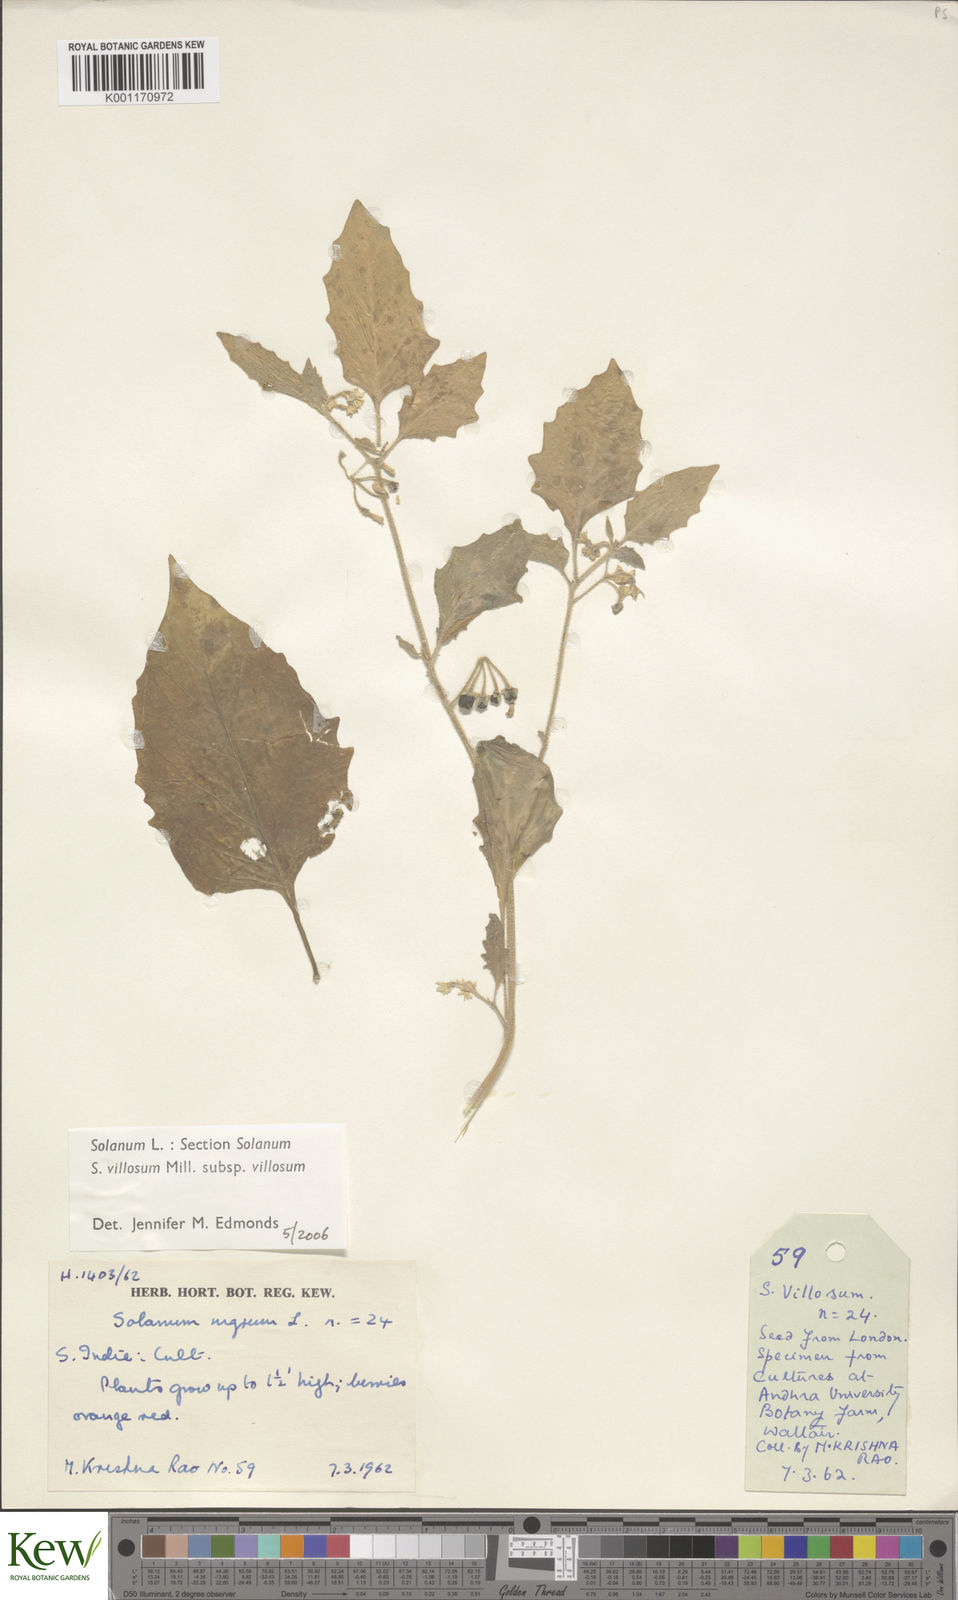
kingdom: Plantae
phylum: Tracheophyta
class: Magnoliopsida
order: Solanales
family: Solanaceae
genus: Solanum
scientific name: Solanum villosum
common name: Red nightshade
